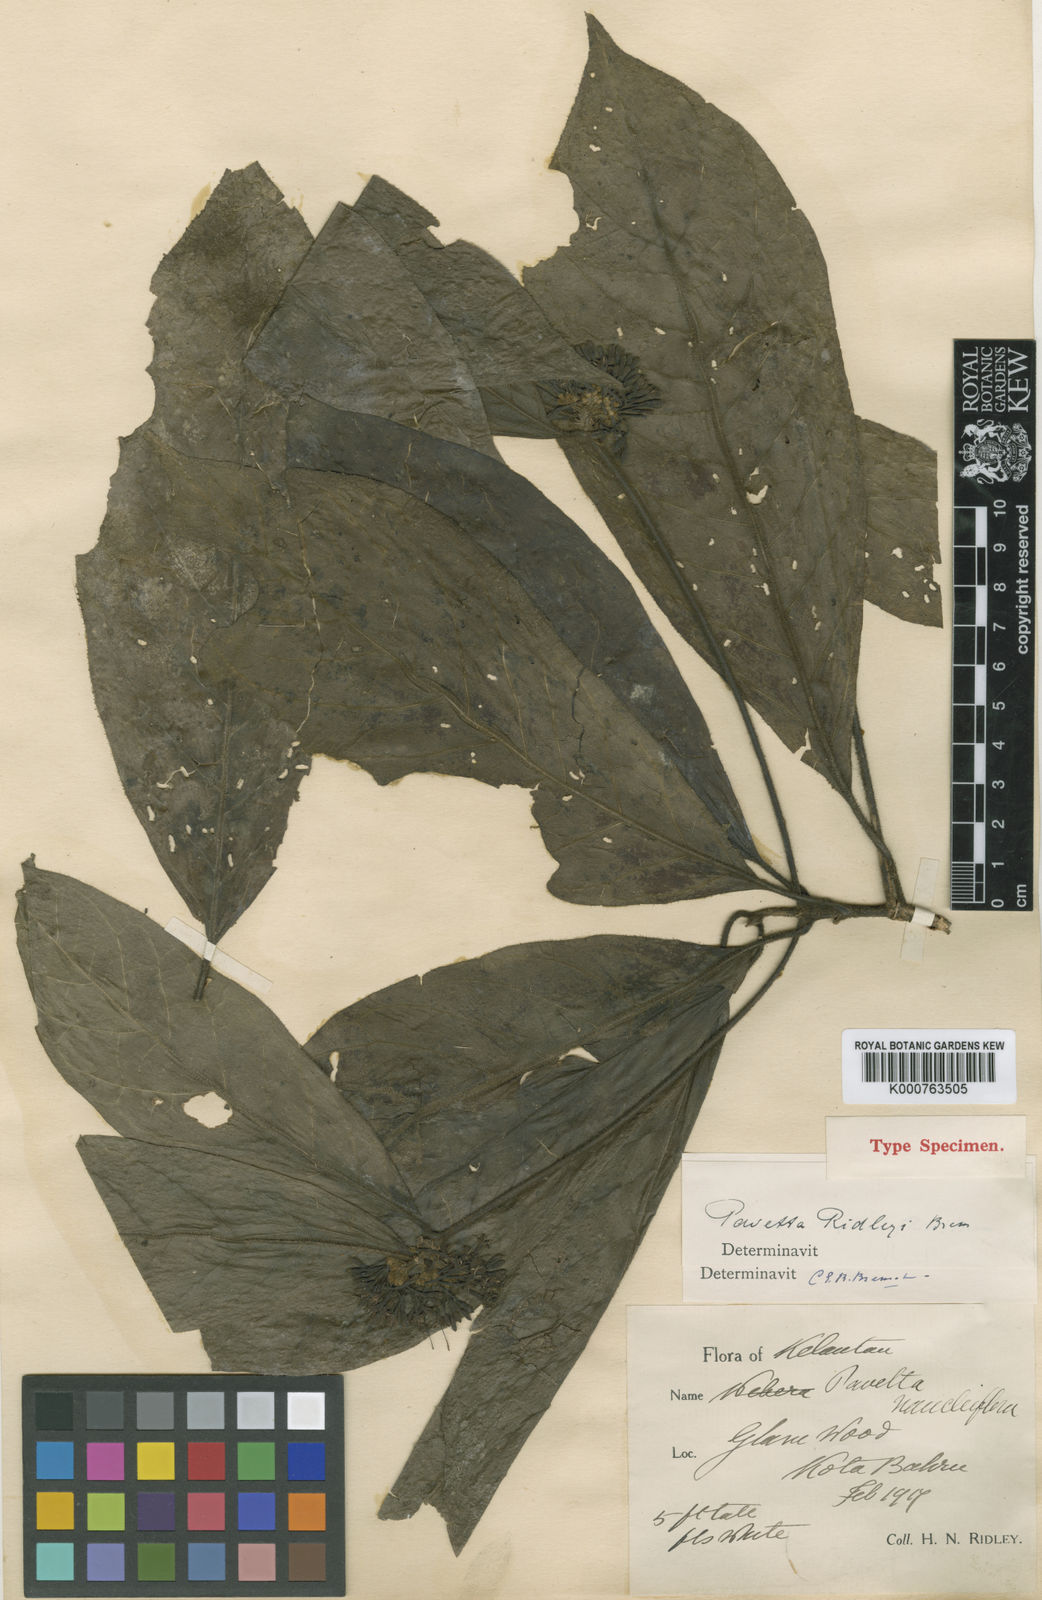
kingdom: Plantae
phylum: Tracheophyta
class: Magnoliopsida
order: Gentianales
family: Rubiaceae
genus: Pavetta
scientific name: Pavetta napieri
